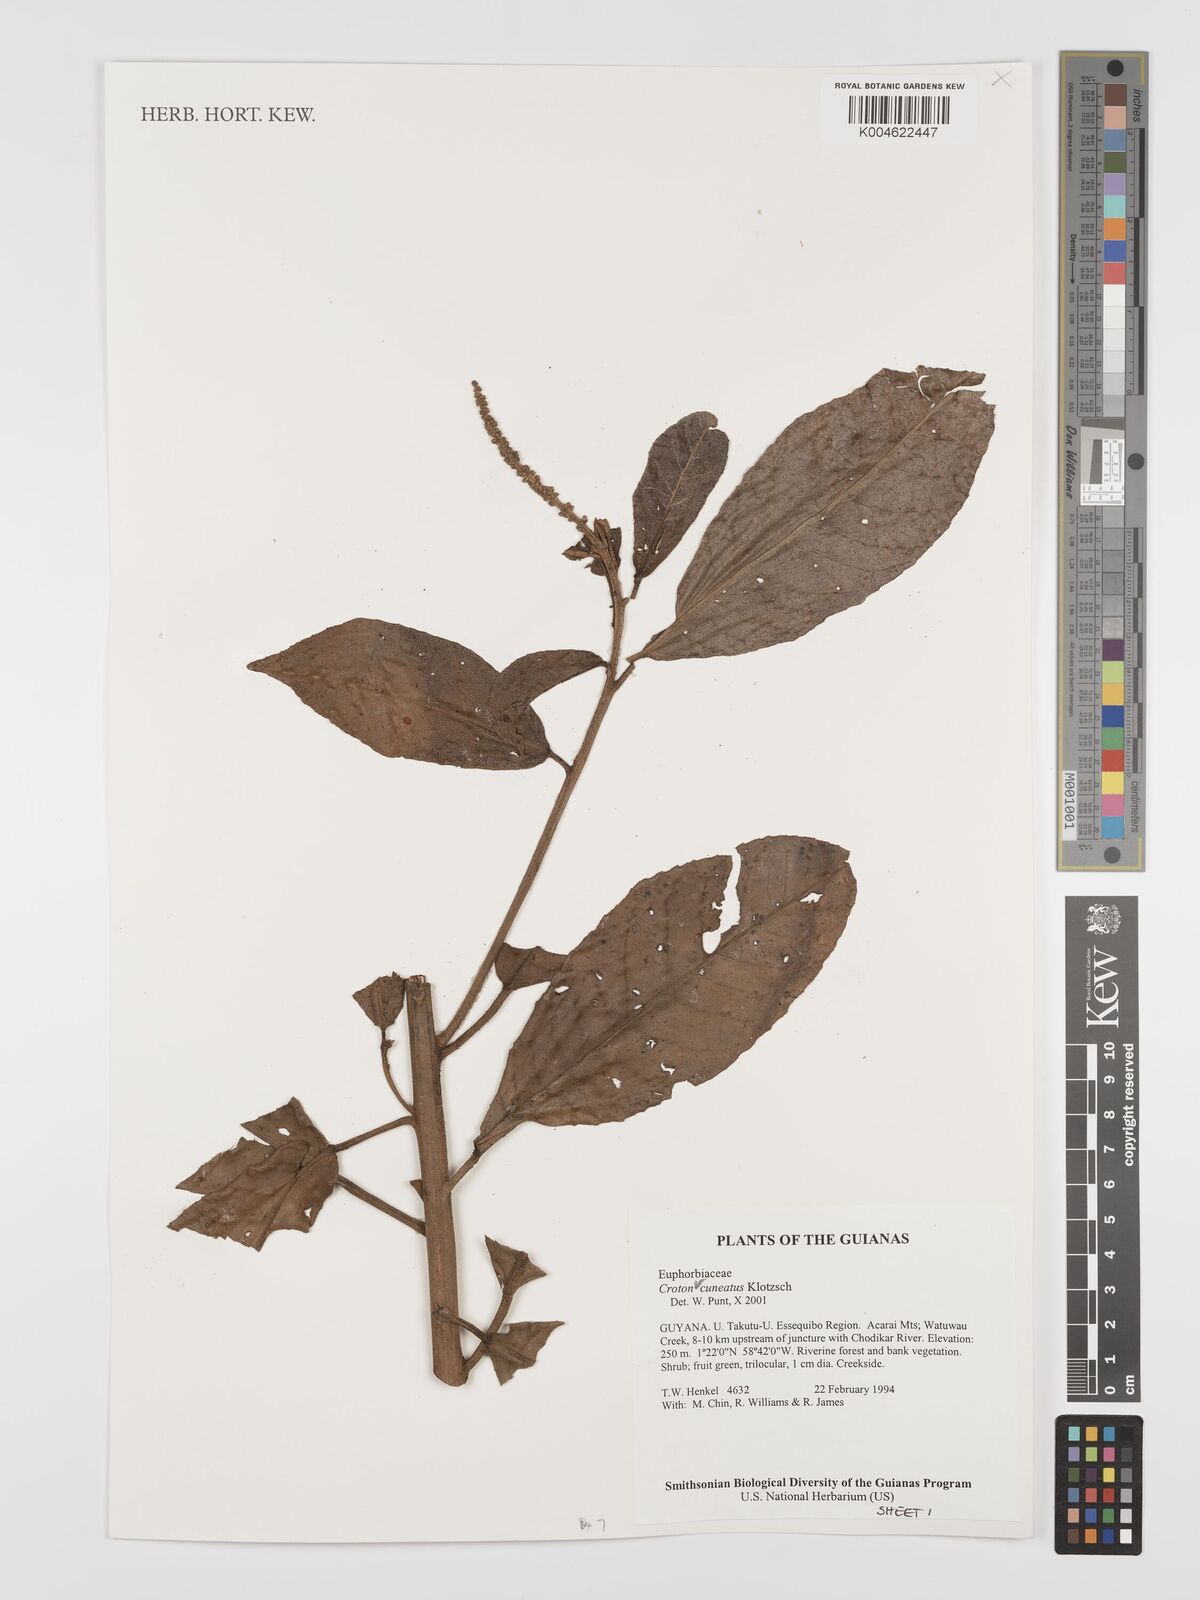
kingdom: Plantae
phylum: Tracheophyta
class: Magnoliopsida
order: Malpighiales
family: Euphorbiaceae
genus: Croton
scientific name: Croton
